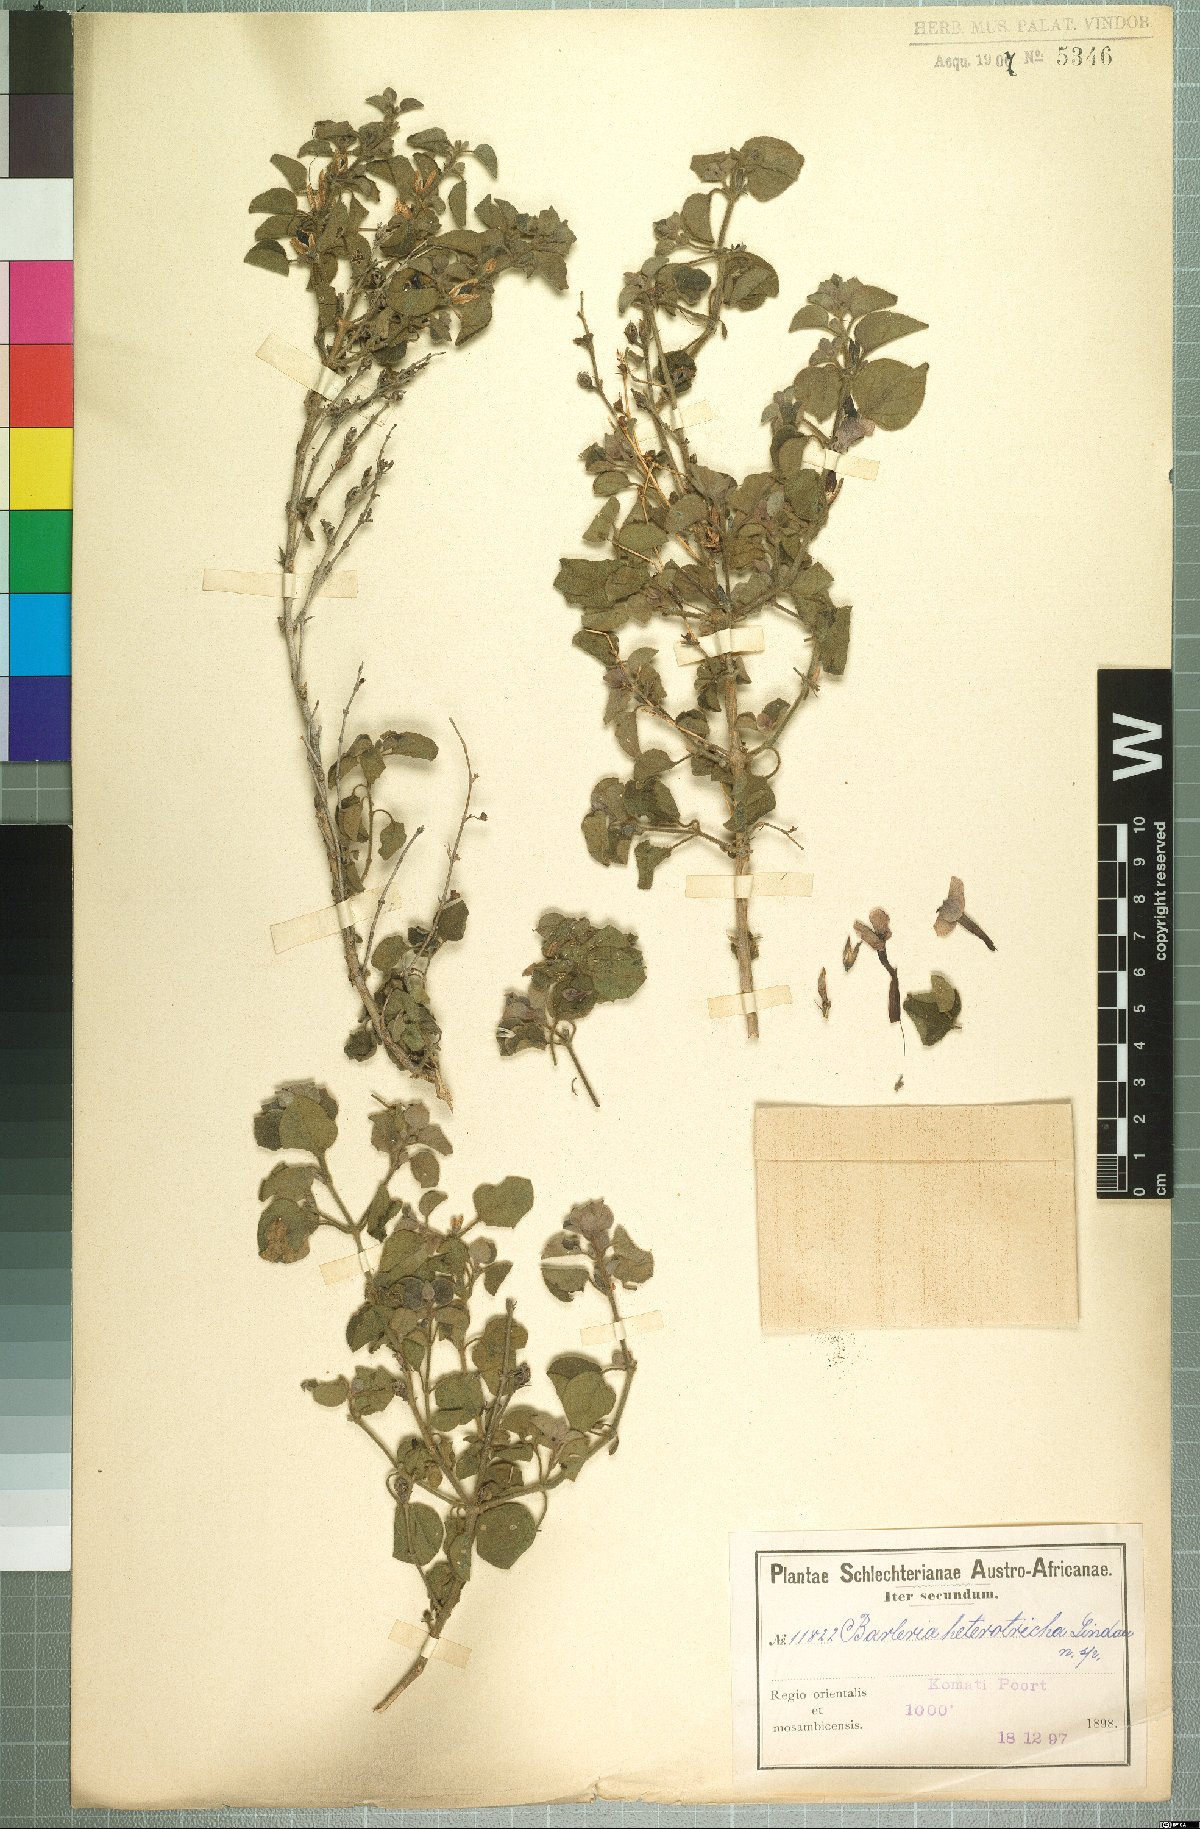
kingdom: Plantae
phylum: Tracheophyta
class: Magnoliopsida
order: Lamiales
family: Acanthaceae
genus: Barleria
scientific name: Barleria affinis
